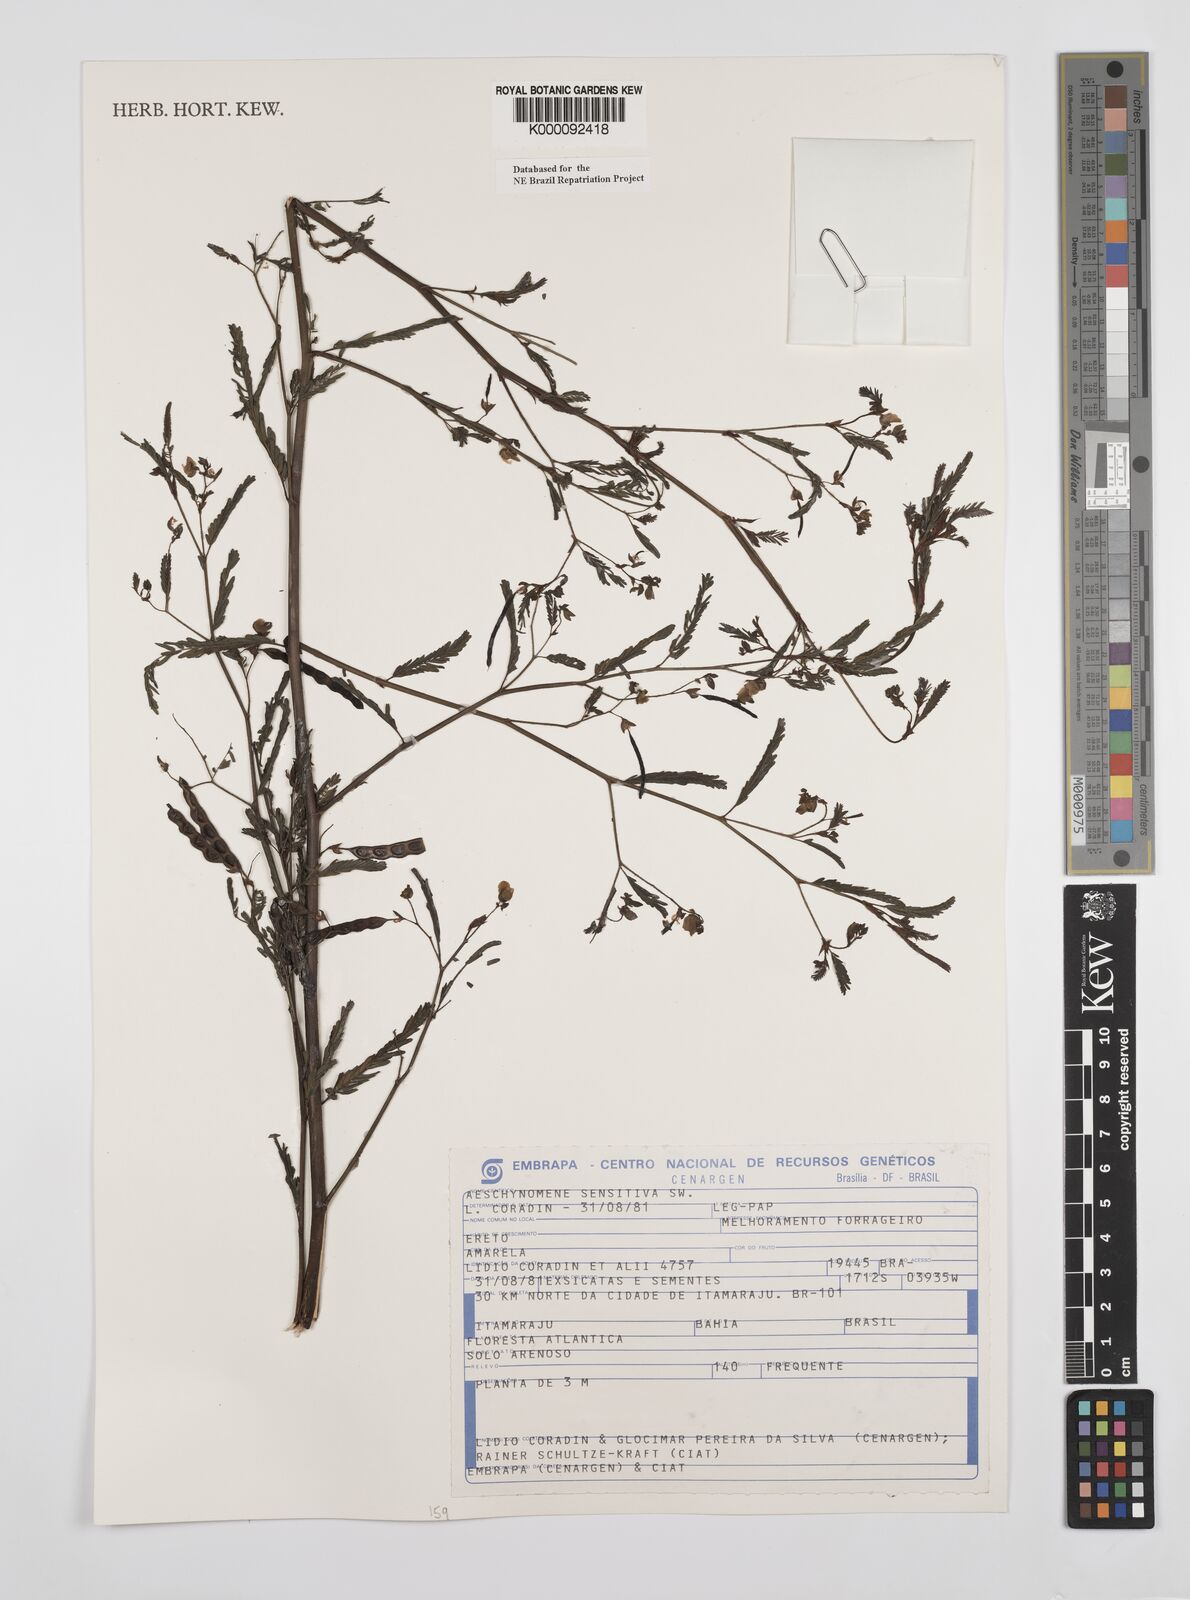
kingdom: Plantae
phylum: Tracheophyta
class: Magnoliopsida
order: Fabales
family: Fabaceae
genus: Aeschynomene
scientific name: Aeschynomene sensitiva
